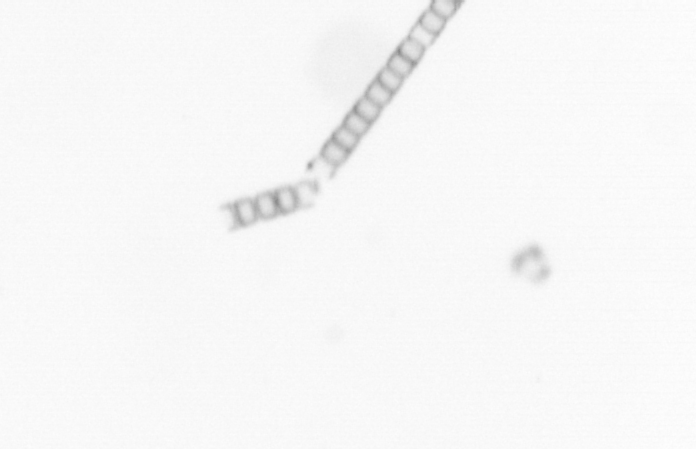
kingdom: Chromista
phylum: Ochrophyta
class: Bacillariophyceae
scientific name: Bacillariophyceae
